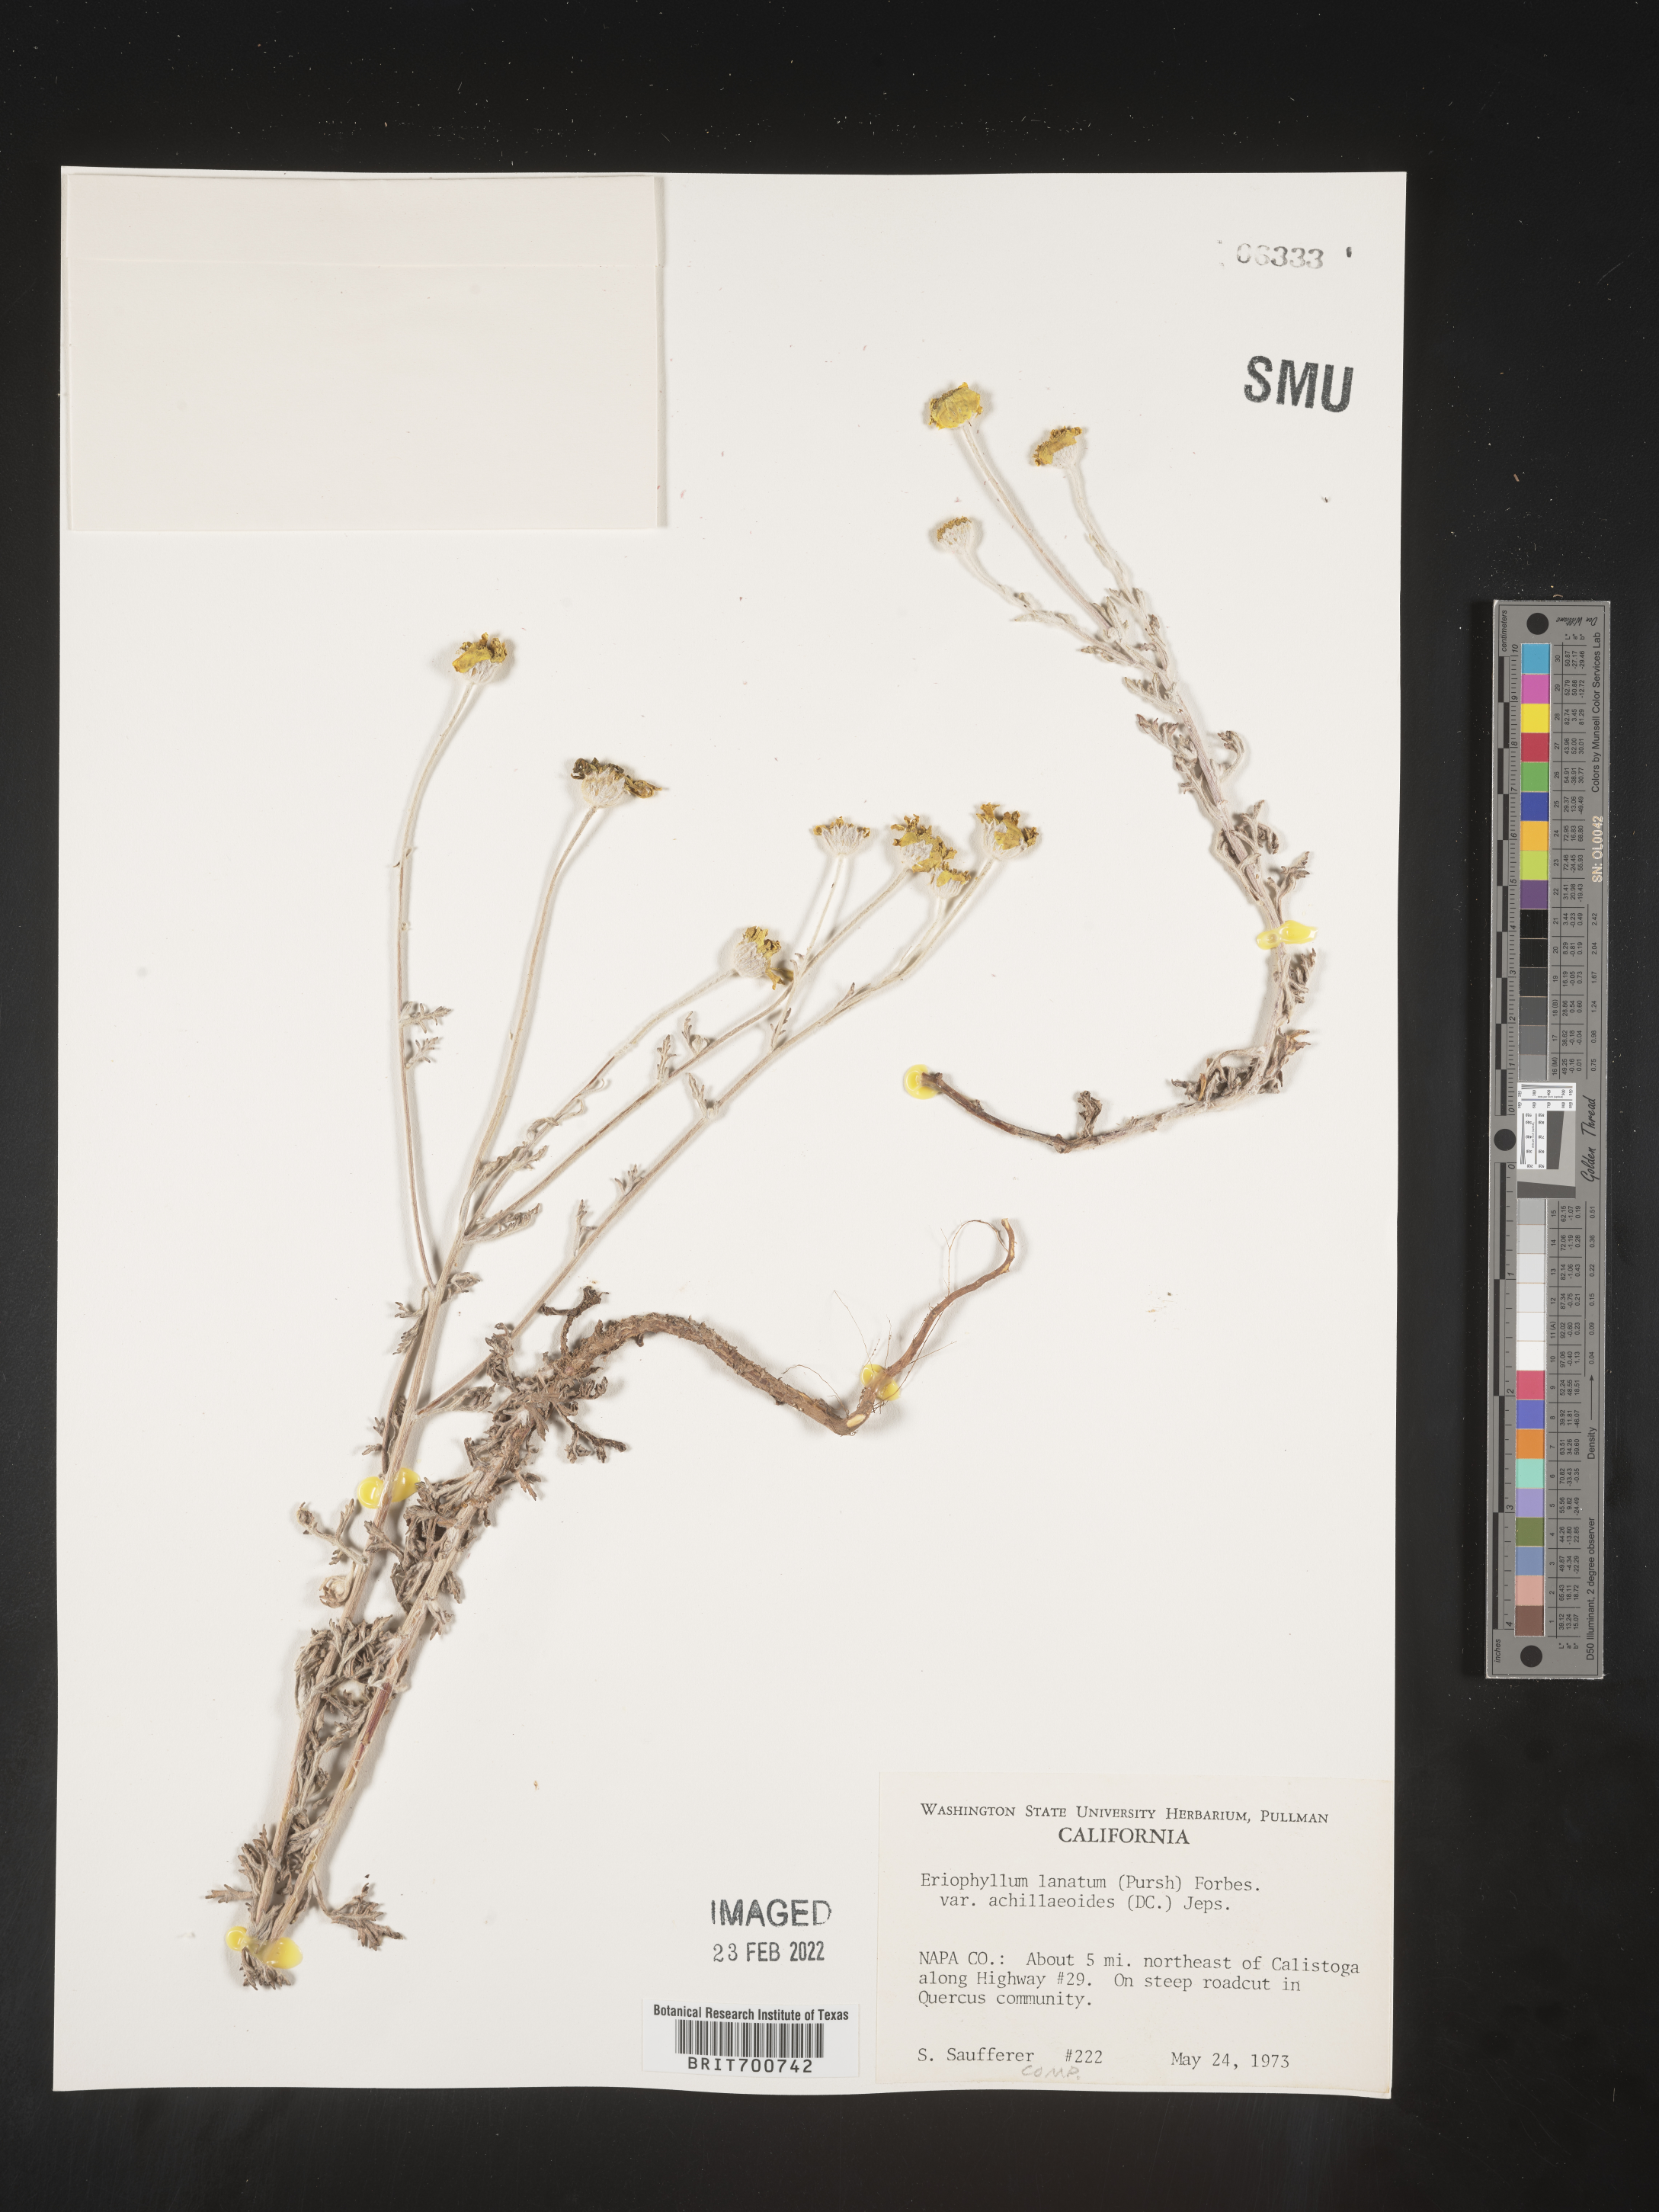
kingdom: Plantae
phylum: Tracheophyta
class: Magnoliopsida
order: Asterales
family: Asteraceae
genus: Eriophyllum
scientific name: Eriophyllum lanatum
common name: Common woolly-sunflower
